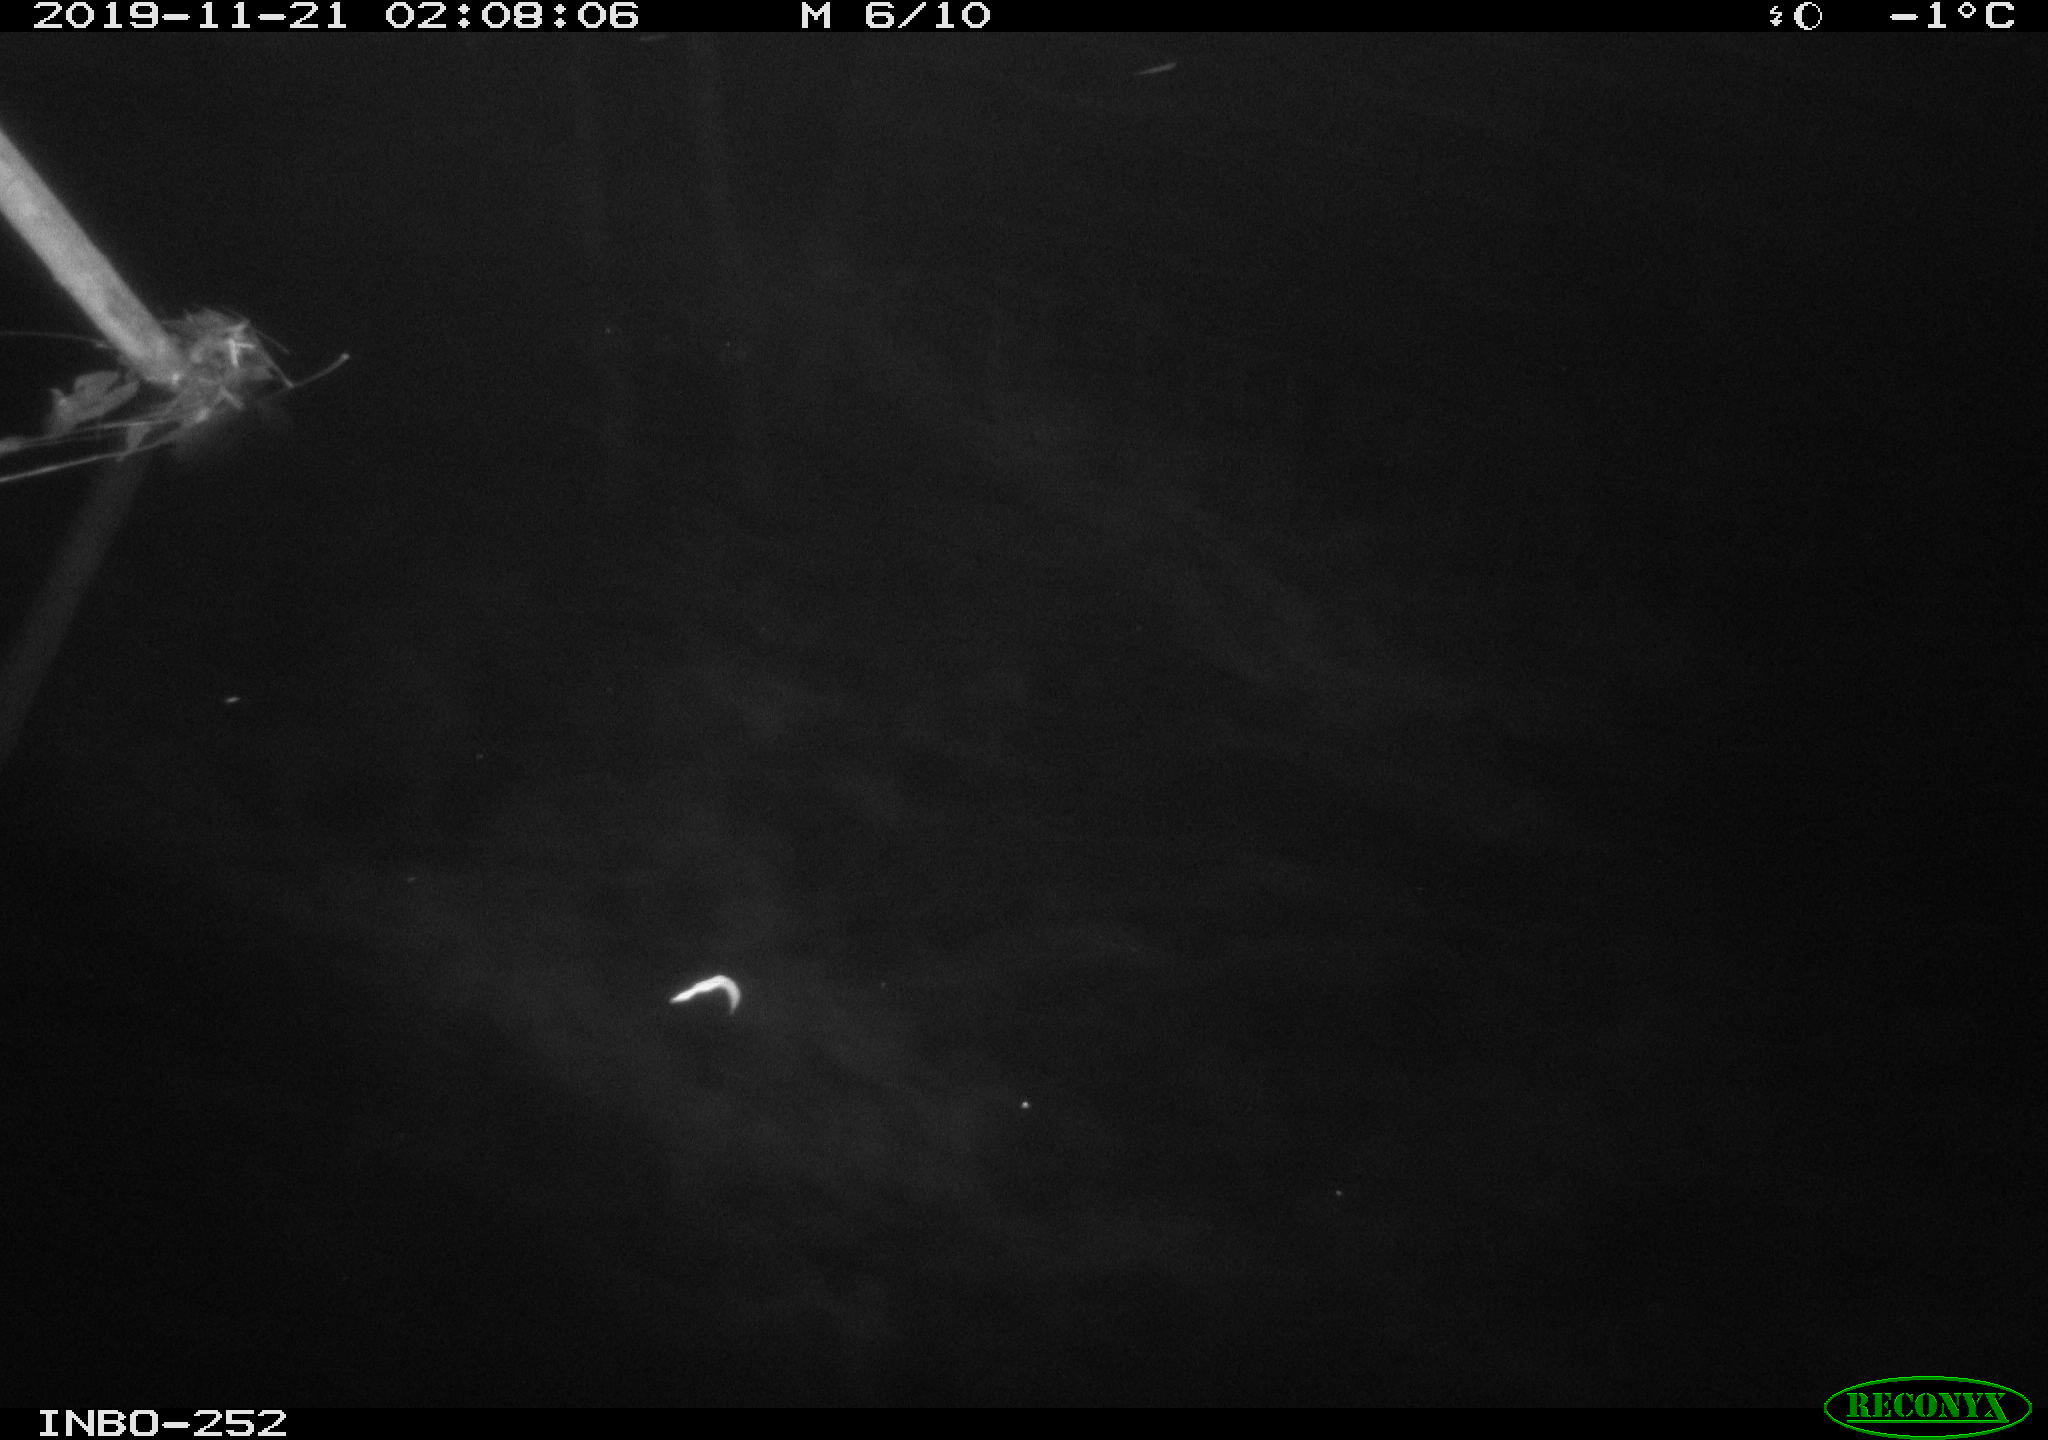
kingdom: Animalia
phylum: Chordata
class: Aves
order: Anseriformes
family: Anatidae
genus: Anas
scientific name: Anas platyrhynchos
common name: Mallard
